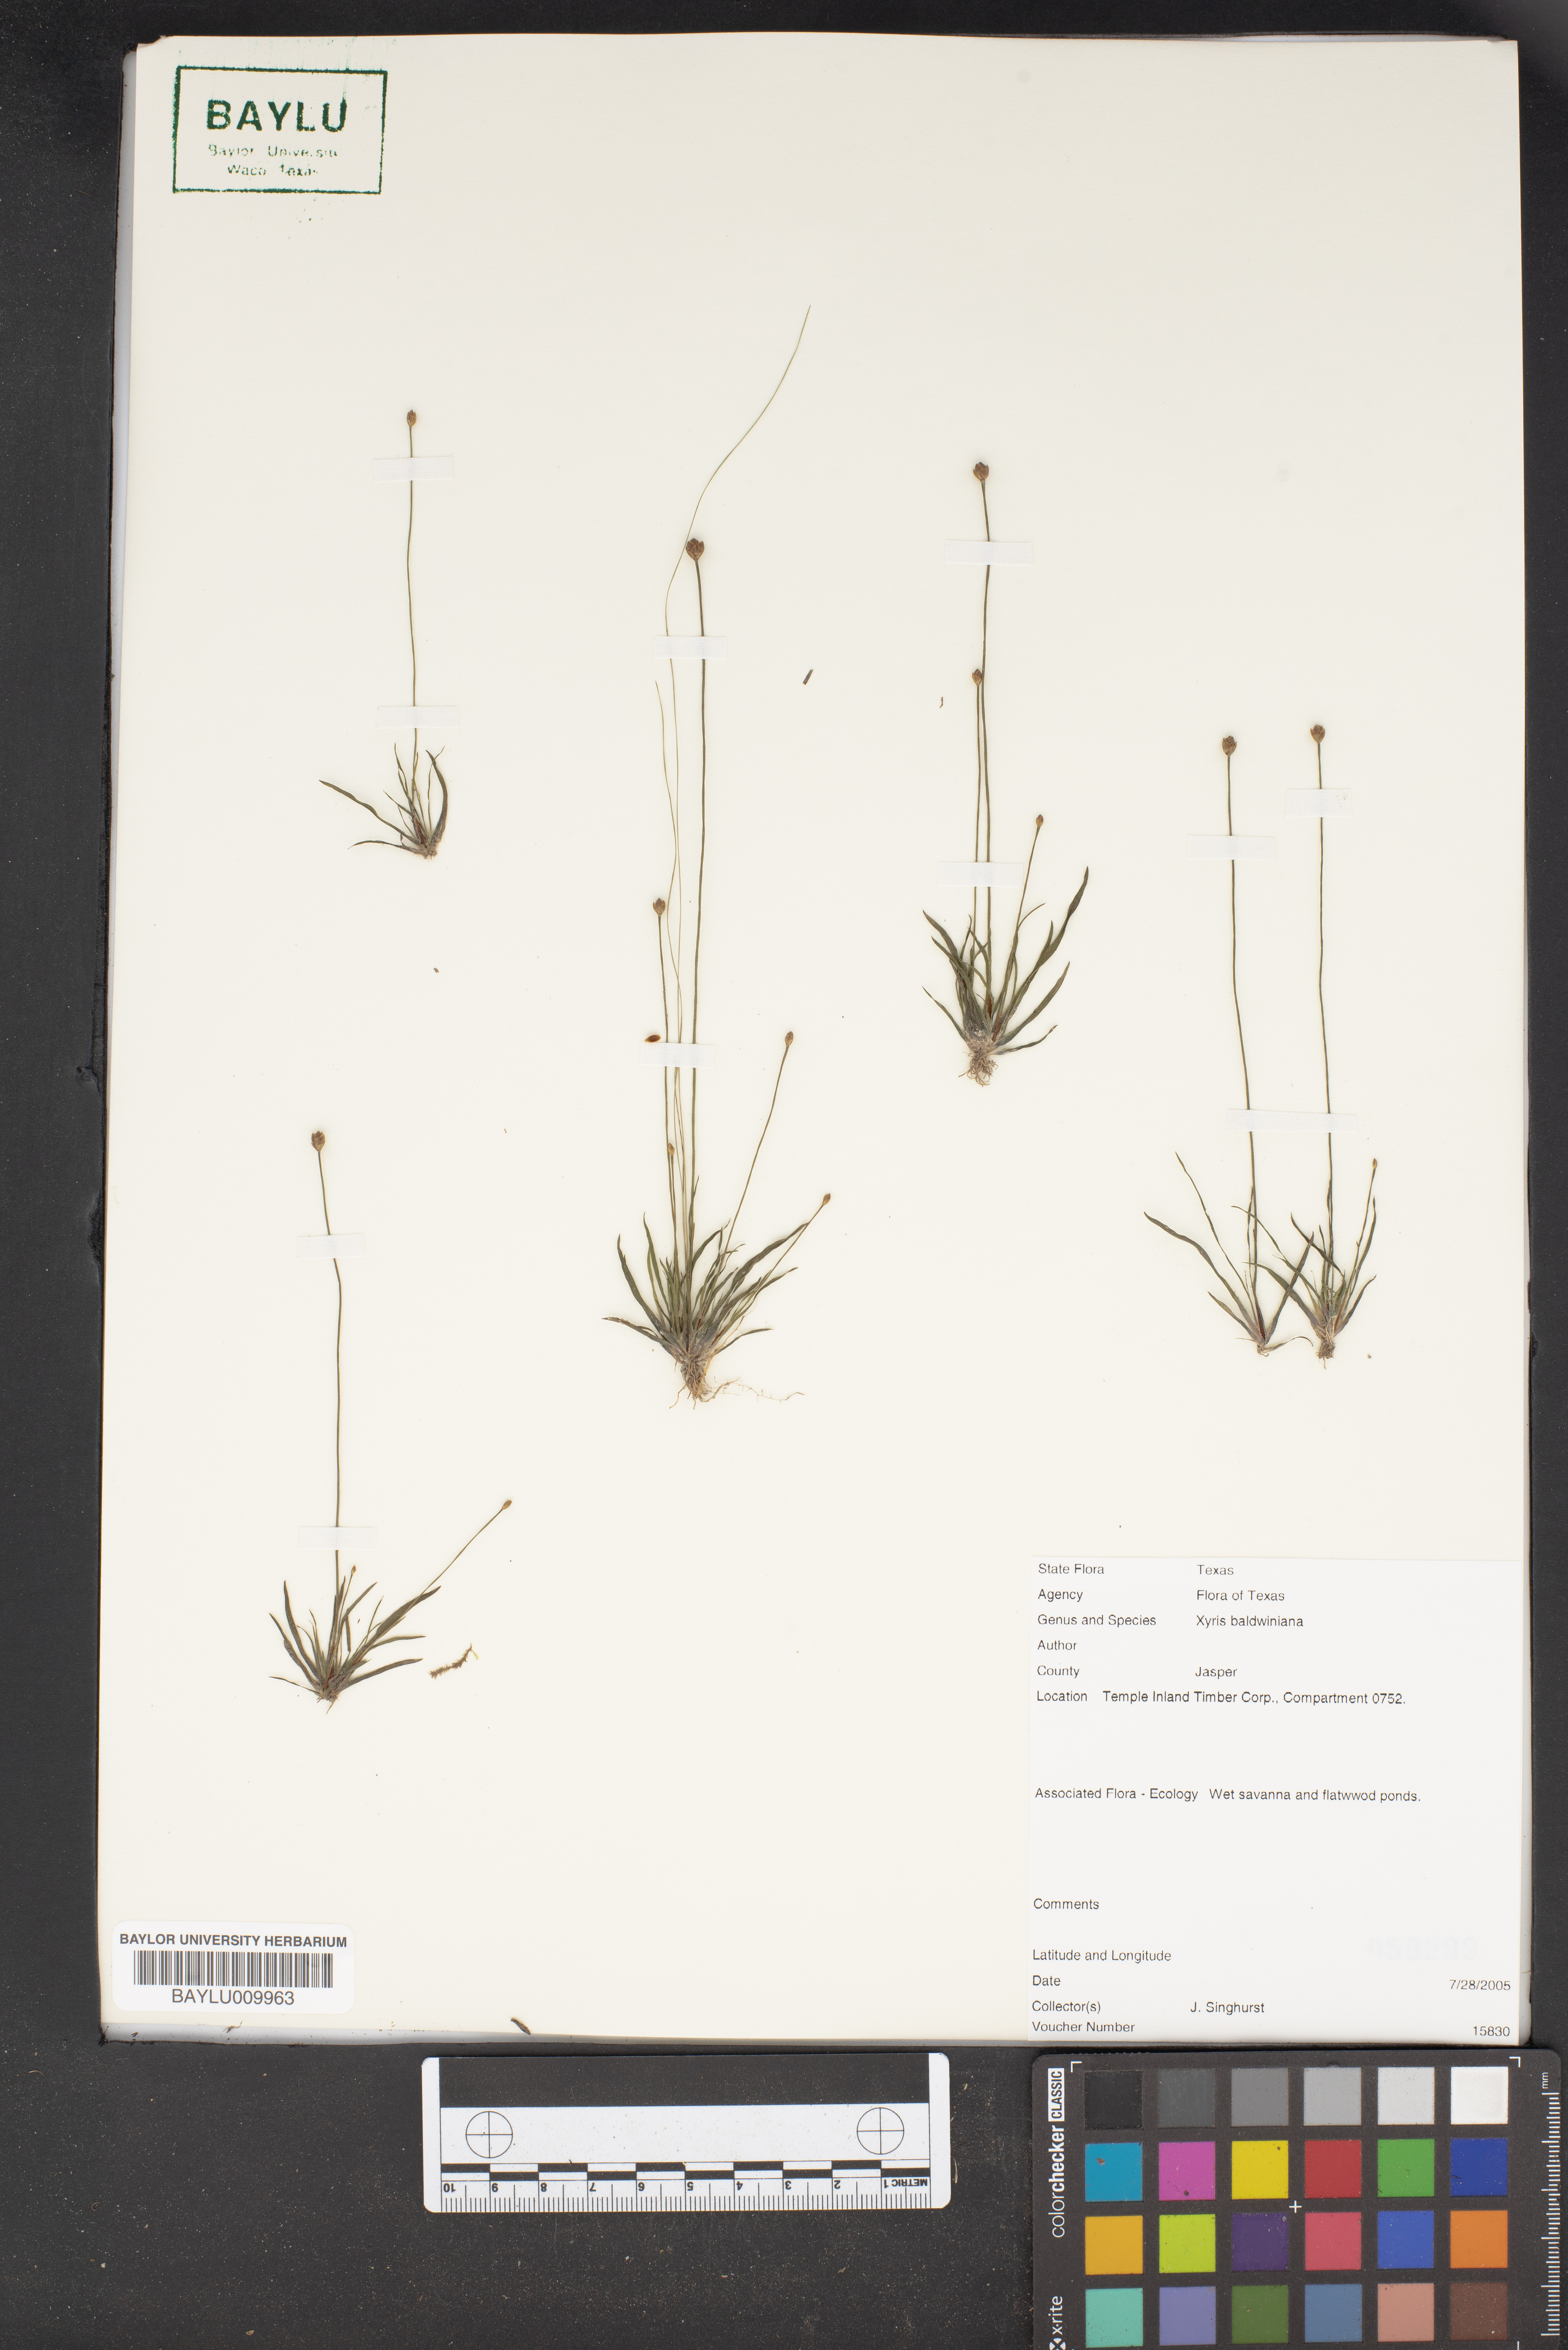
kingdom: Plantae
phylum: Tracheophyta
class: Liliopsida
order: Poales
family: Xyridaceae
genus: Xyris
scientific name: Xyris baldwiniana
